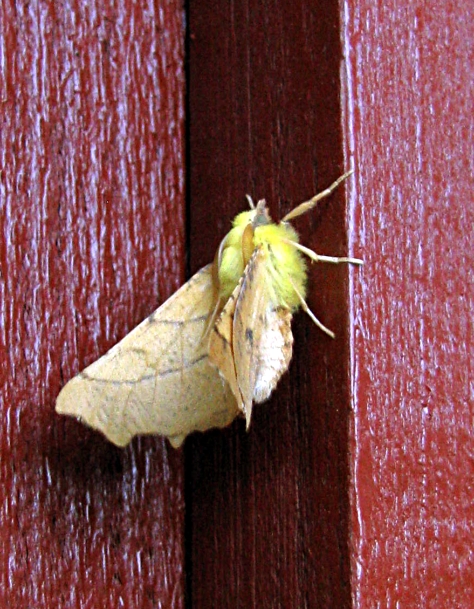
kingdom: Animalia
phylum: Arthropoda
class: Insecta
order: Lepidoptera
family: Geometridae
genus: Ennomos
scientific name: Ennomos alniaria
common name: Canary-shouldered thorn
